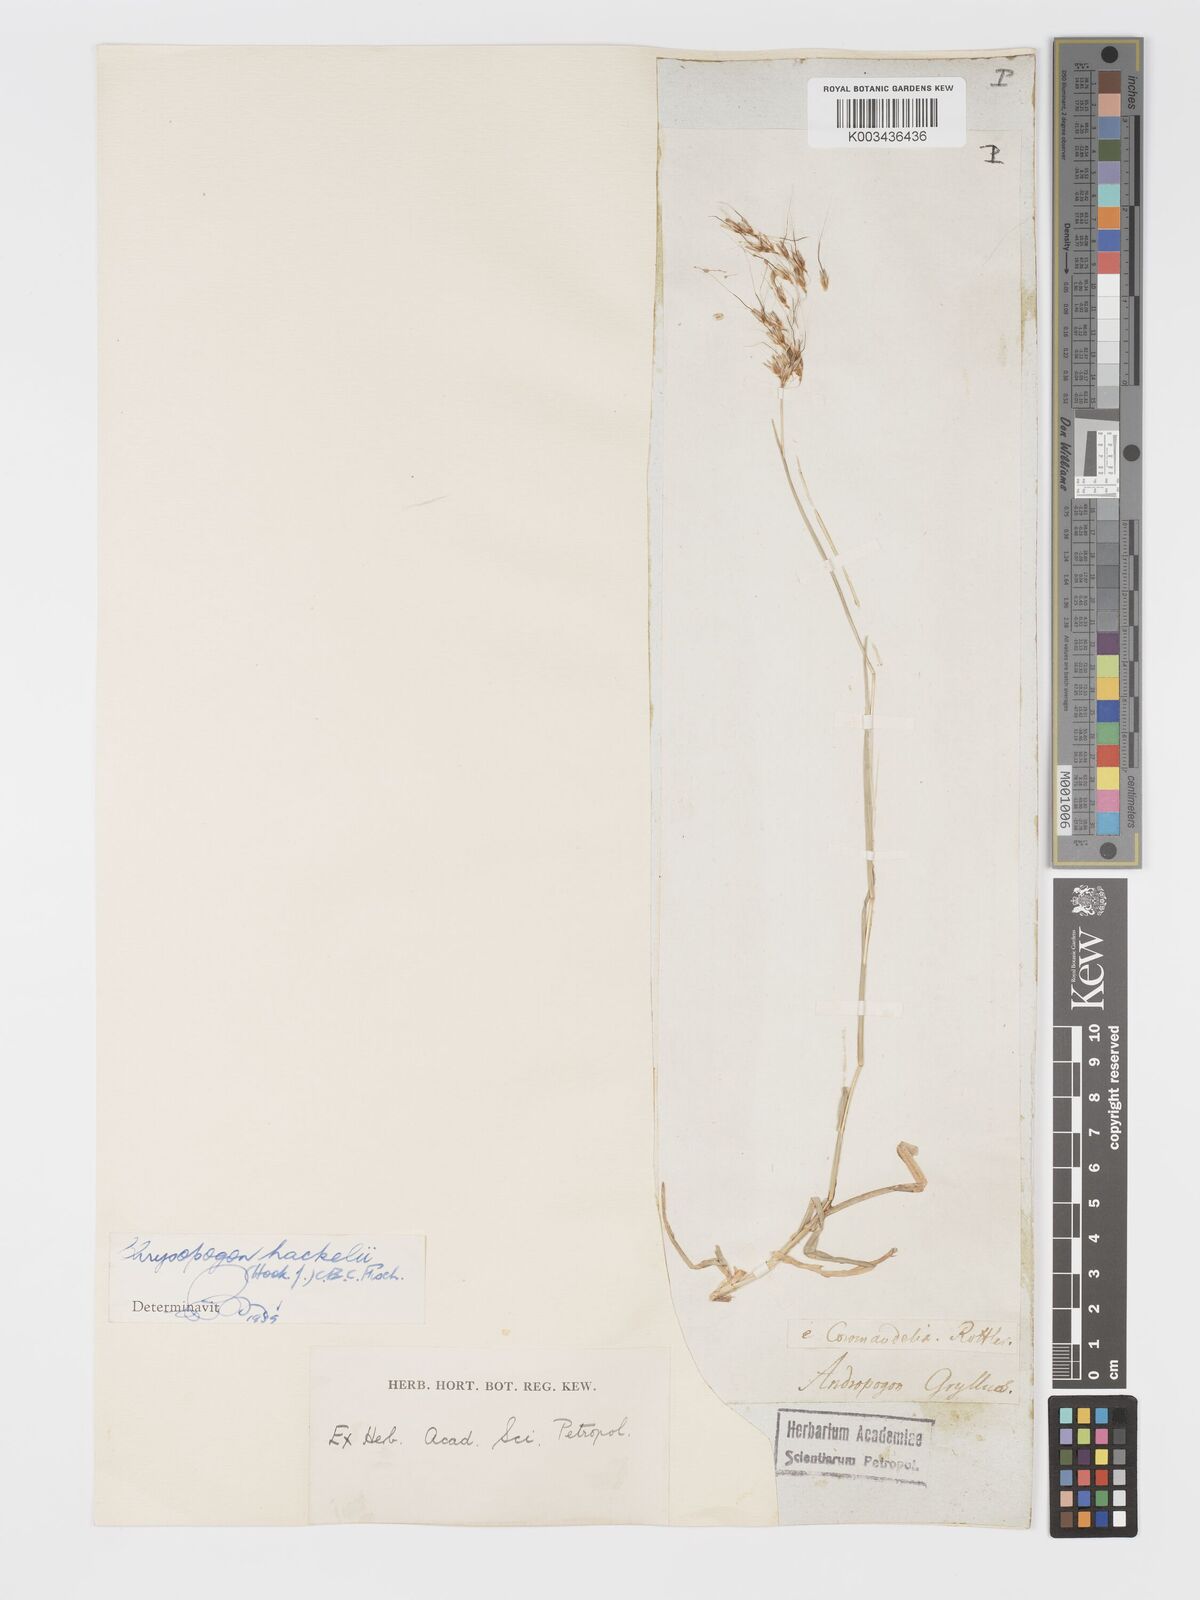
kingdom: Plantae
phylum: Tracheophyta
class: Liliopsida
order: Poales
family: Poaceae
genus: Chrysopogon
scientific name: Chrysopogon hackelii
